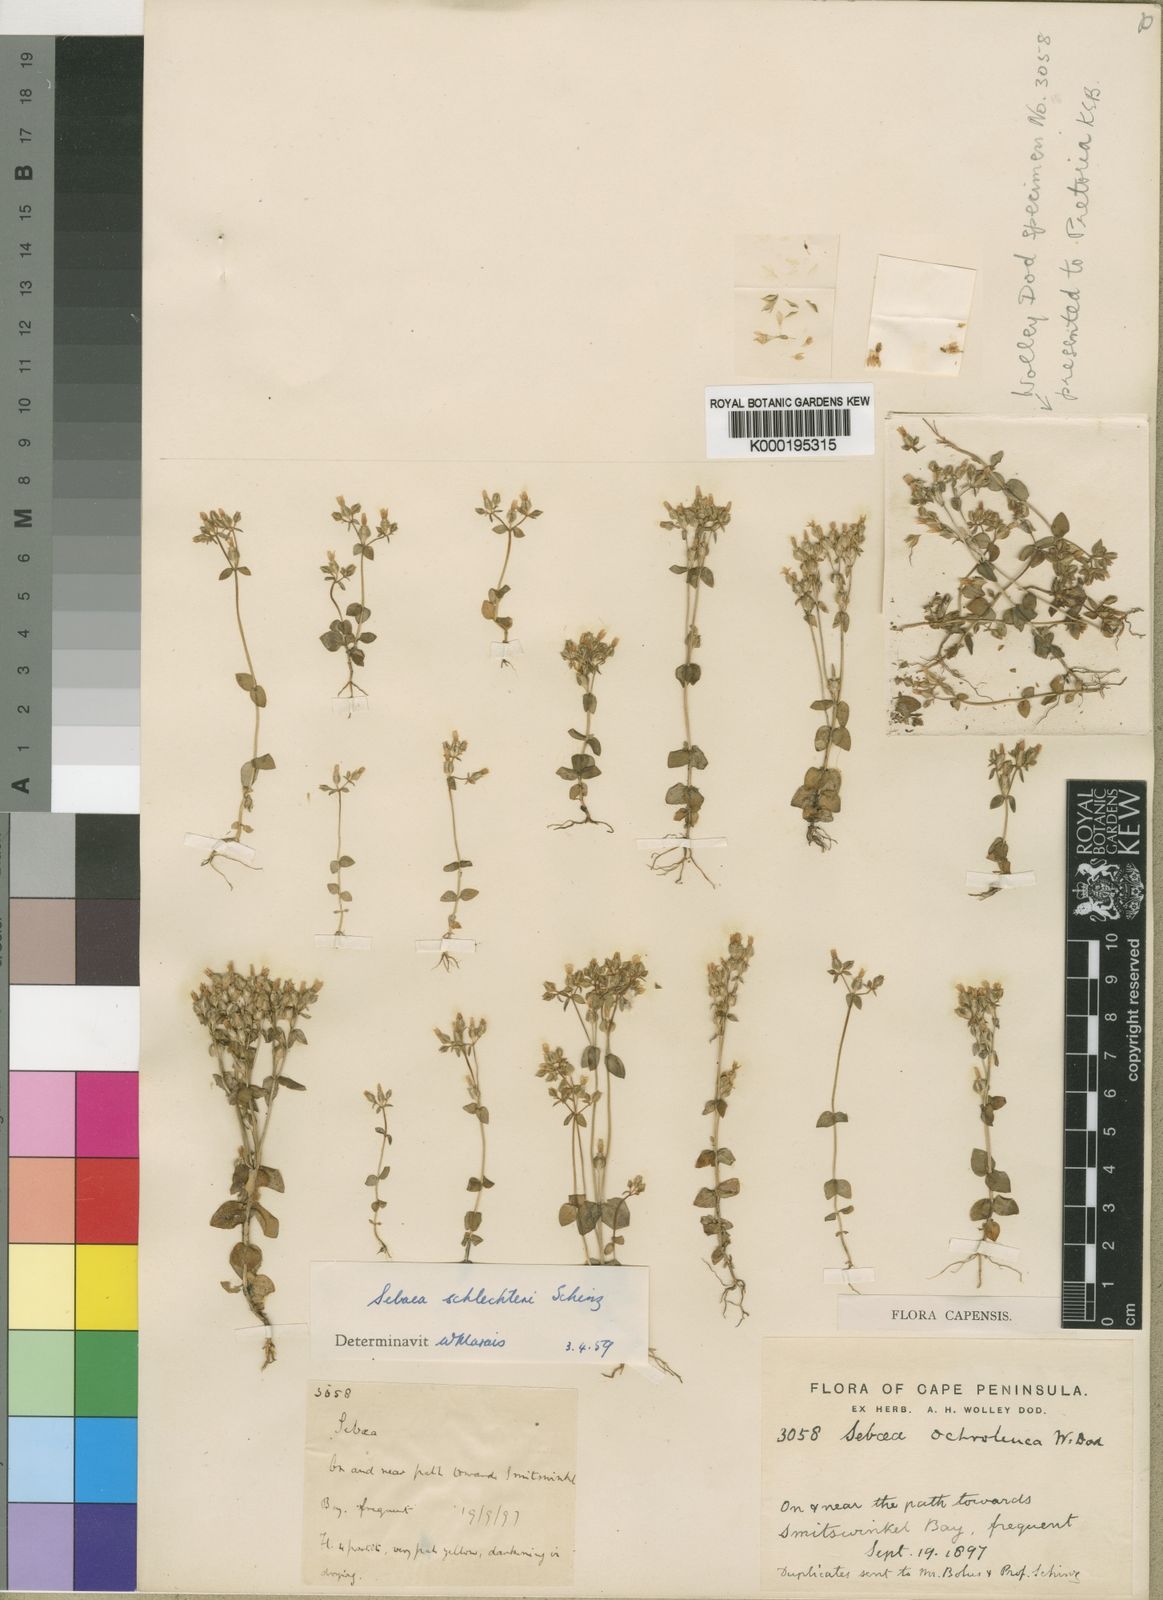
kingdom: Plantae
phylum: Tracheophyta
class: Magnoliopsida
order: Gentianales
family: Gentianaceae
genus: Sebaea
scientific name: Sebaea schlechteri
